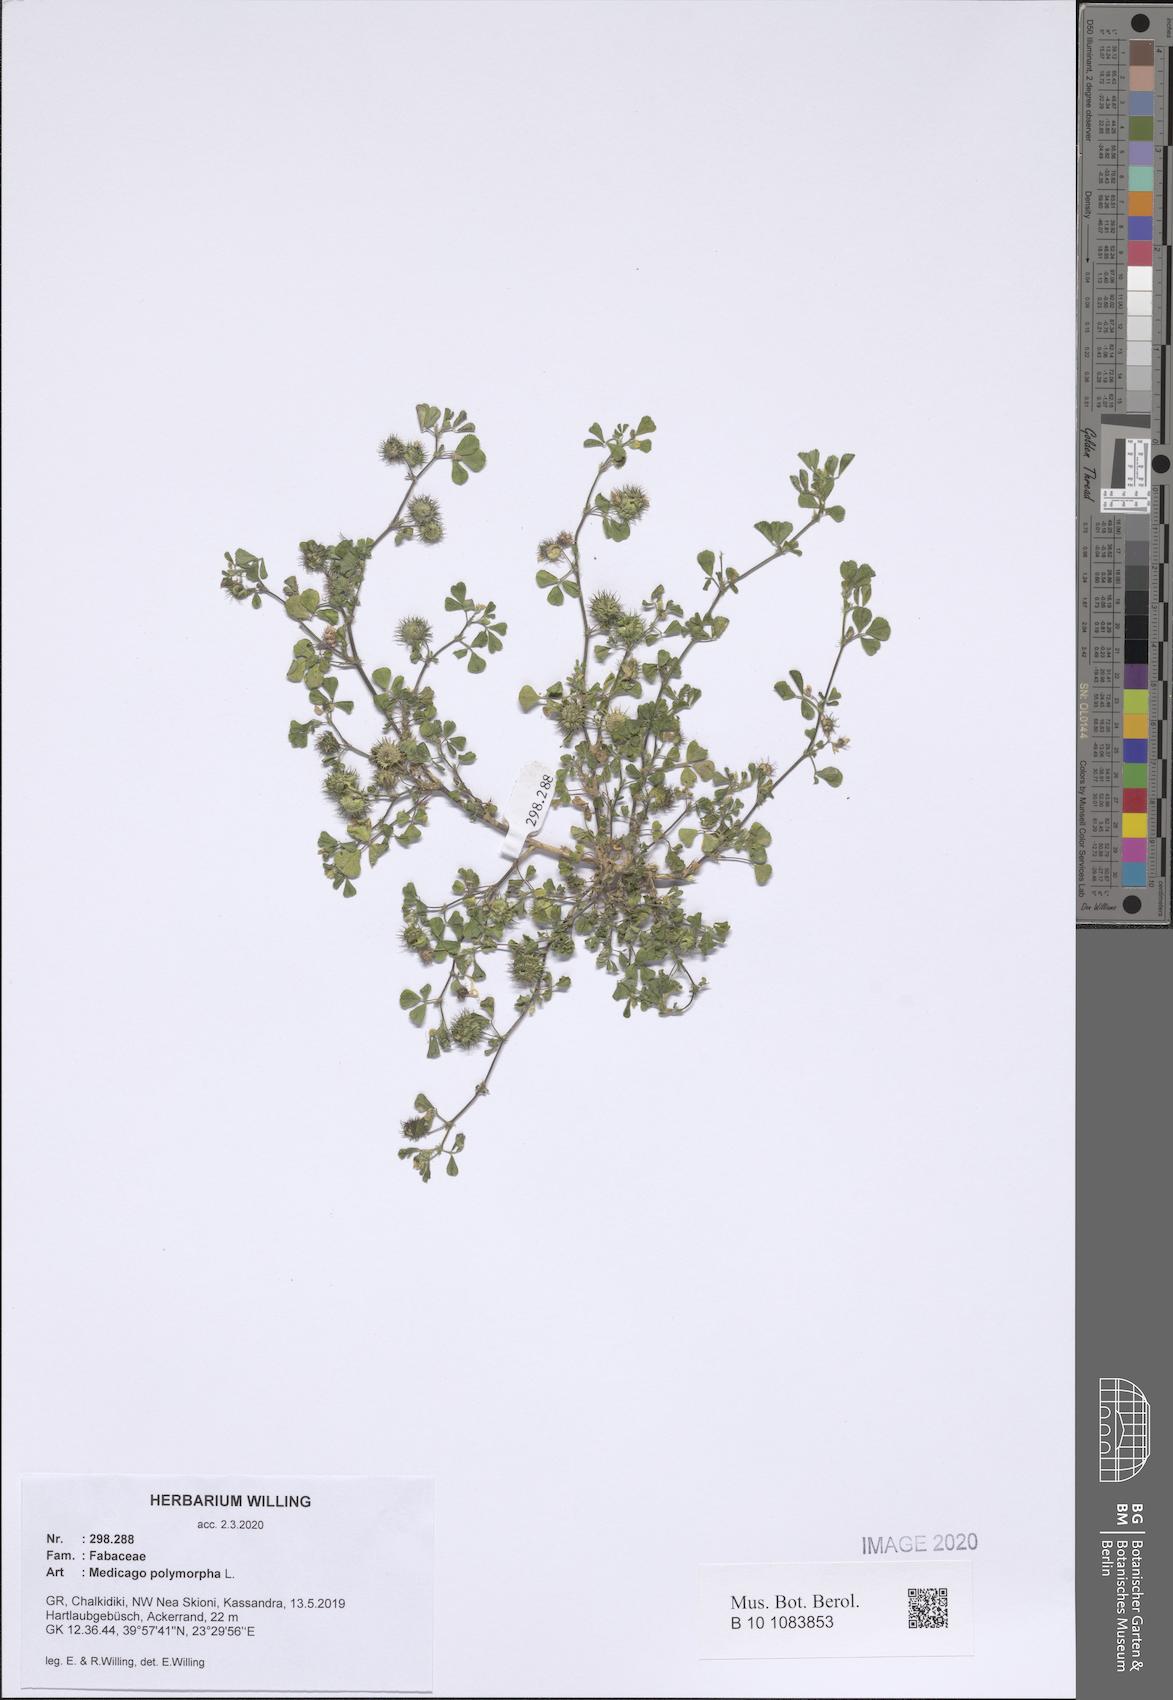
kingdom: Plantae
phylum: Tracheophyta
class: Magnoliopsida
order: Fabales
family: Fabaceae
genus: Medicago
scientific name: Medicago polymorpha
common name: Burclover
